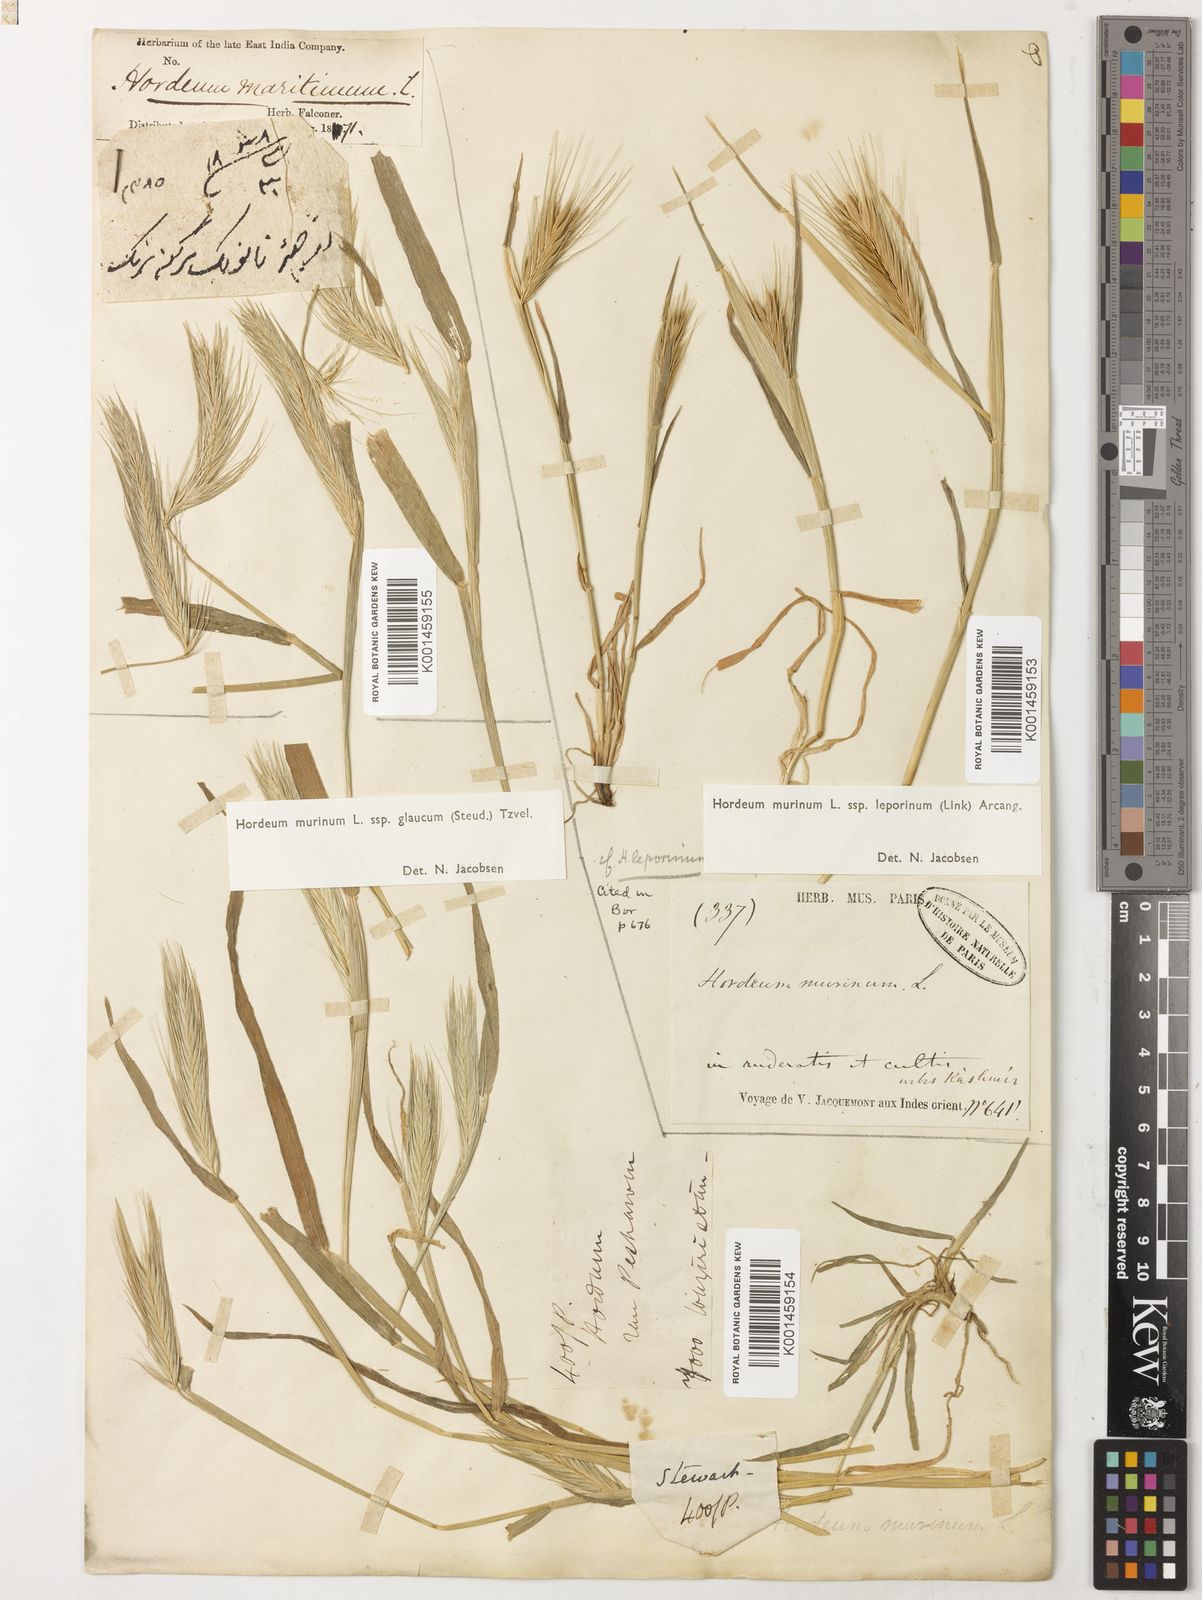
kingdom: Plantae
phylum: Tracheophyta
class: Liliopsida
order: Poales
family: Poaceae
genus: Hordeum
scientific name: Hordeum murinum
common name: Wall barley
